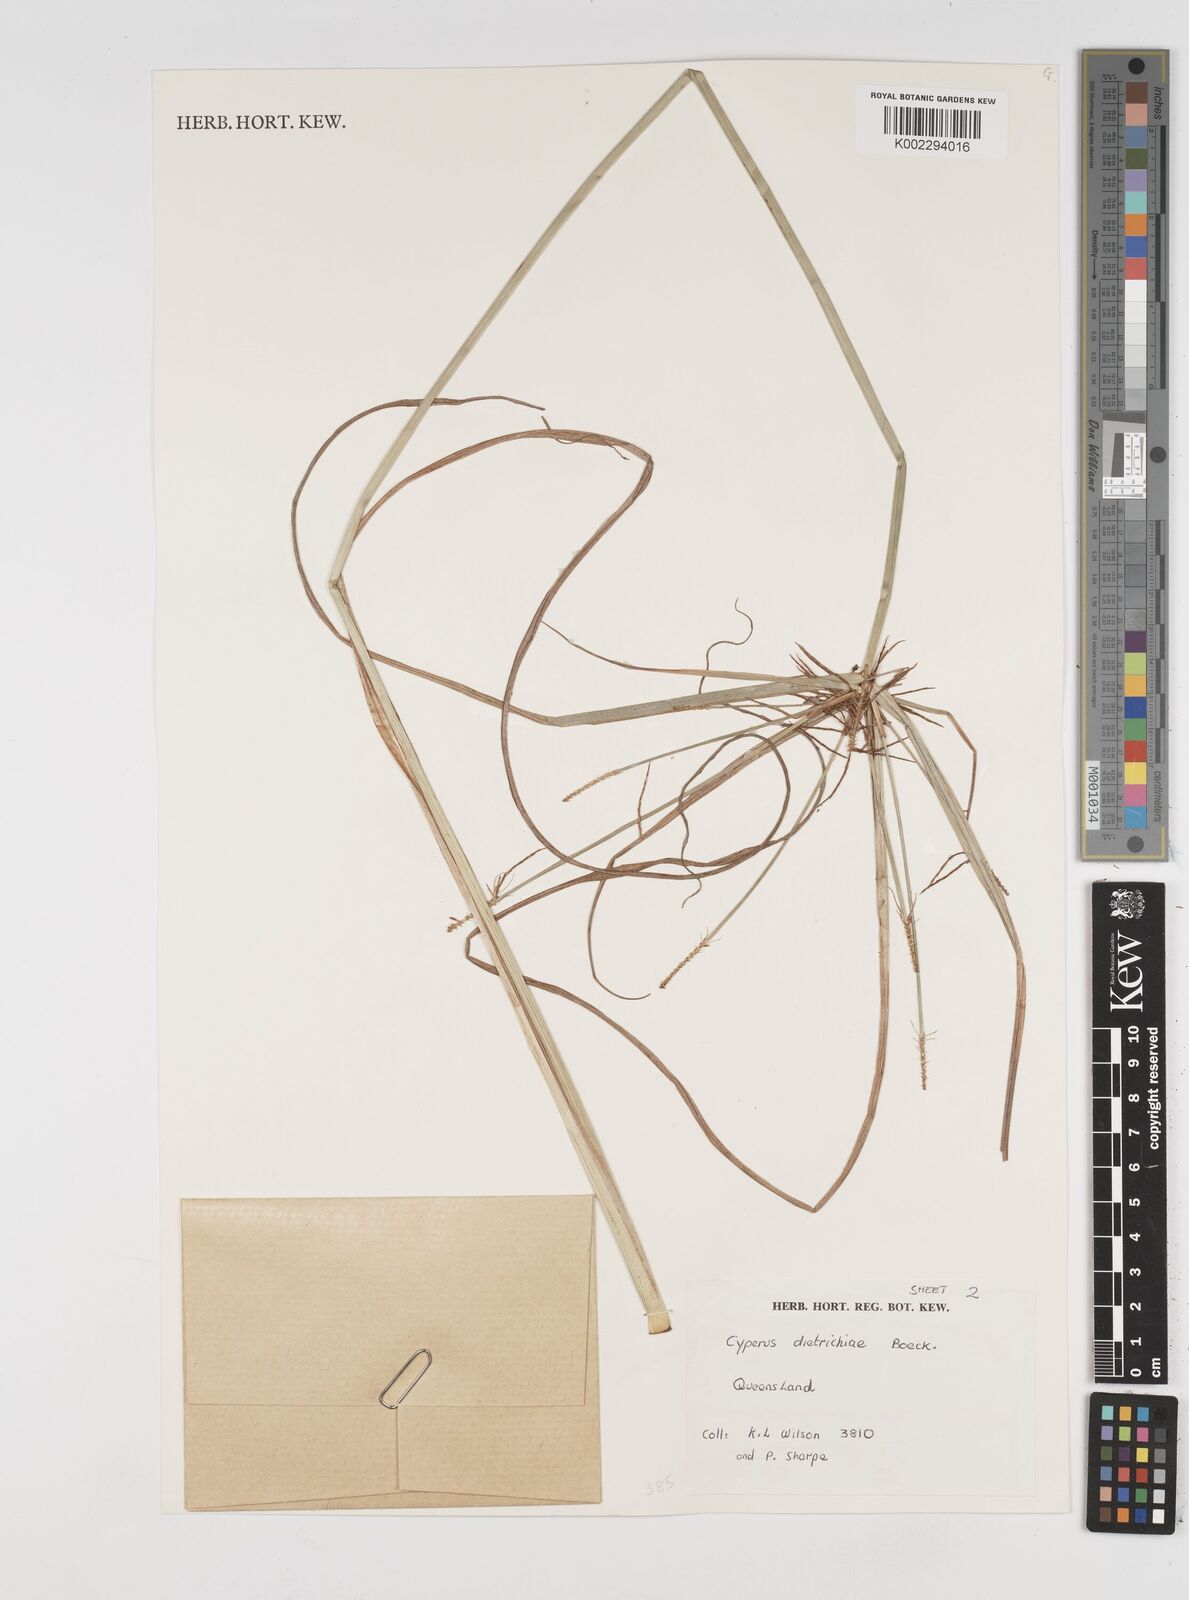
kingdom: Plantae
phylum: Tracheophyta
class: Liliopsida
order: Poales
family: Cyperaceae
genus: Cyperus
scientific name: Cyperus dietrichiae
